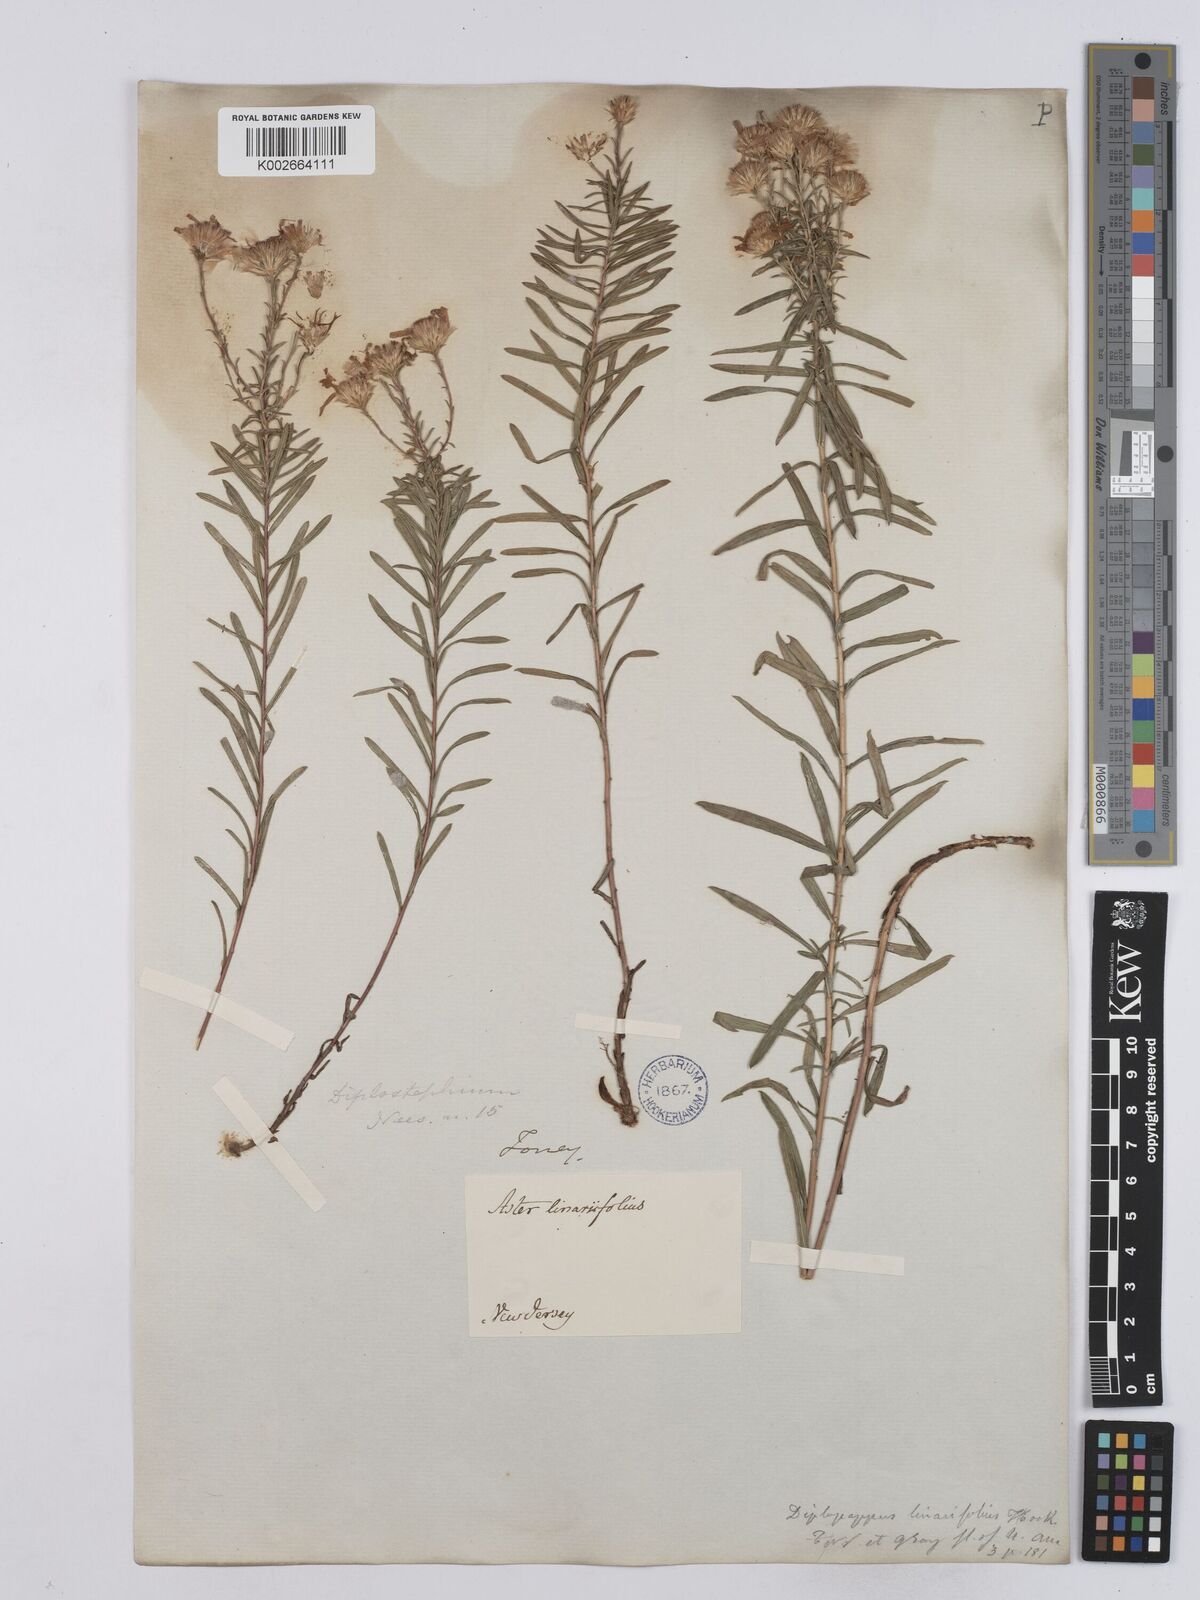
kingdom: Plantae
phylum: Tracheophyta
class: Magnoliopsida
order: Asterales
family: Asteraceae
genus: Ionactis
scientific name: Ionactis linariifolia
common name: Flax-leaf aster
